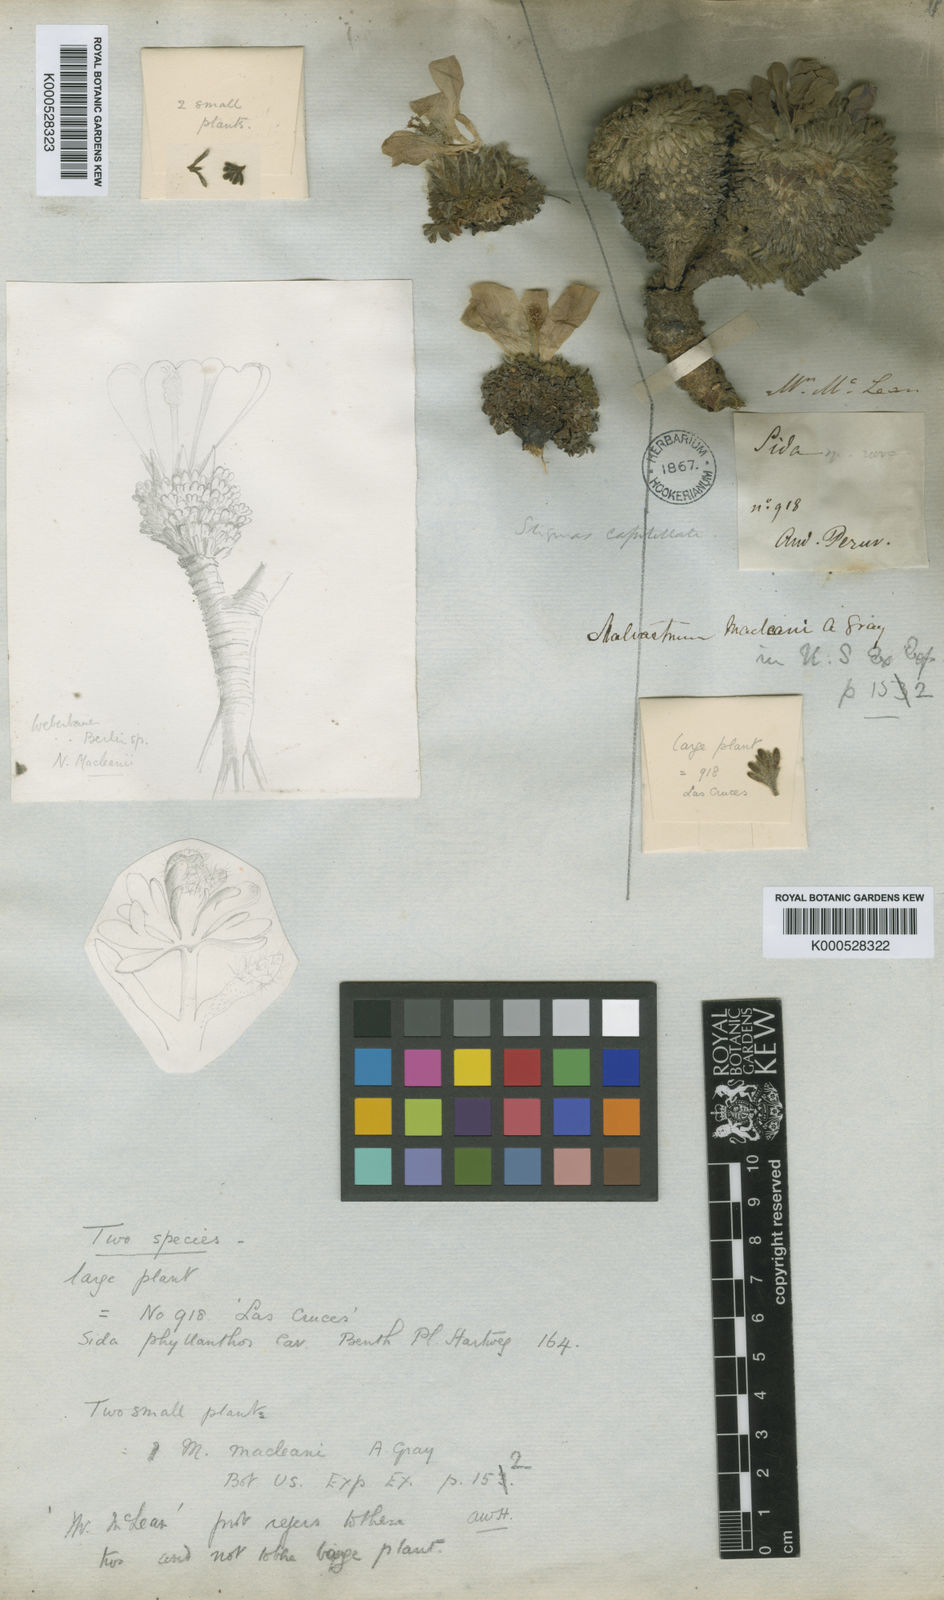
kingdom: Plantae
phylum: Tracheophyta
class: Magnoliopsida
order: Malvales
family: Malvaceae
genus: Nototriche
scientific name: Nototriche macleanii
